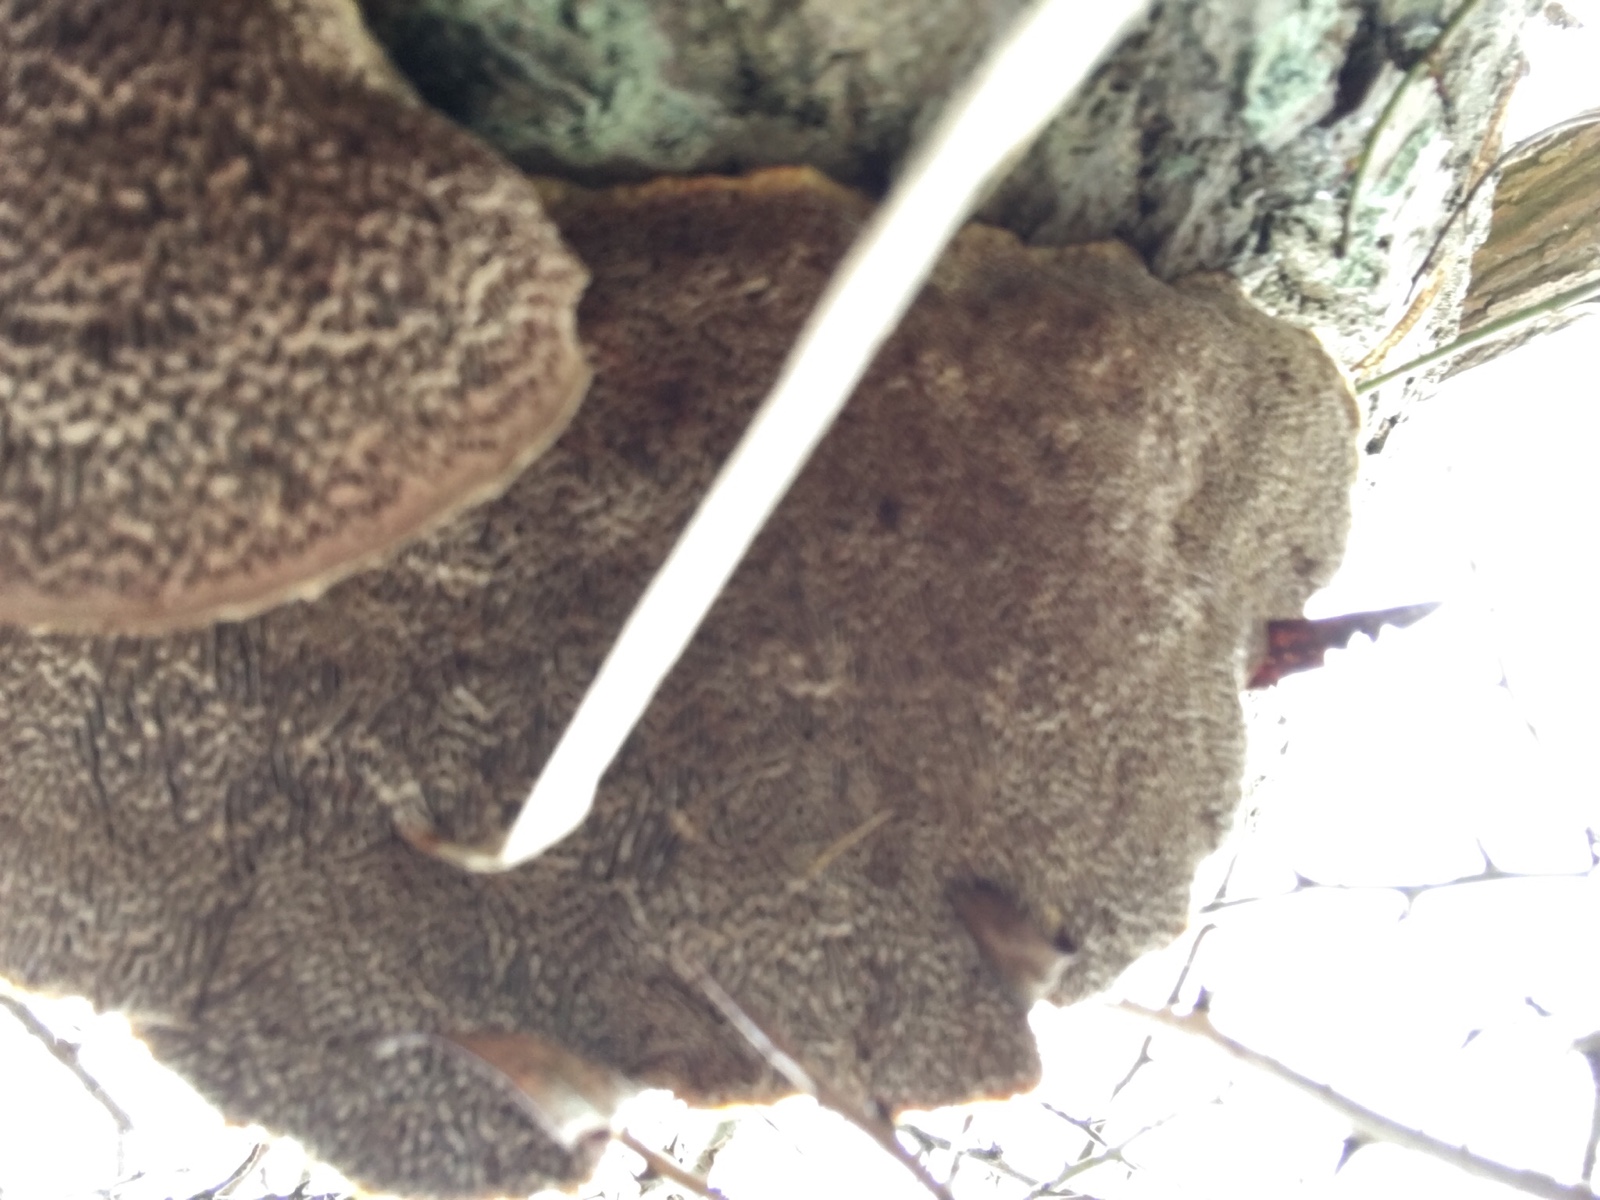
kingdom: Fungi
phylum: Basidiomycota
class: Agaricomycetes
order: Polyporales
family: Polyporaceae
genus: Daedaleopsis
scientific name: Daedaleopsis confragosa
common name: rødmende læderporesvamp
